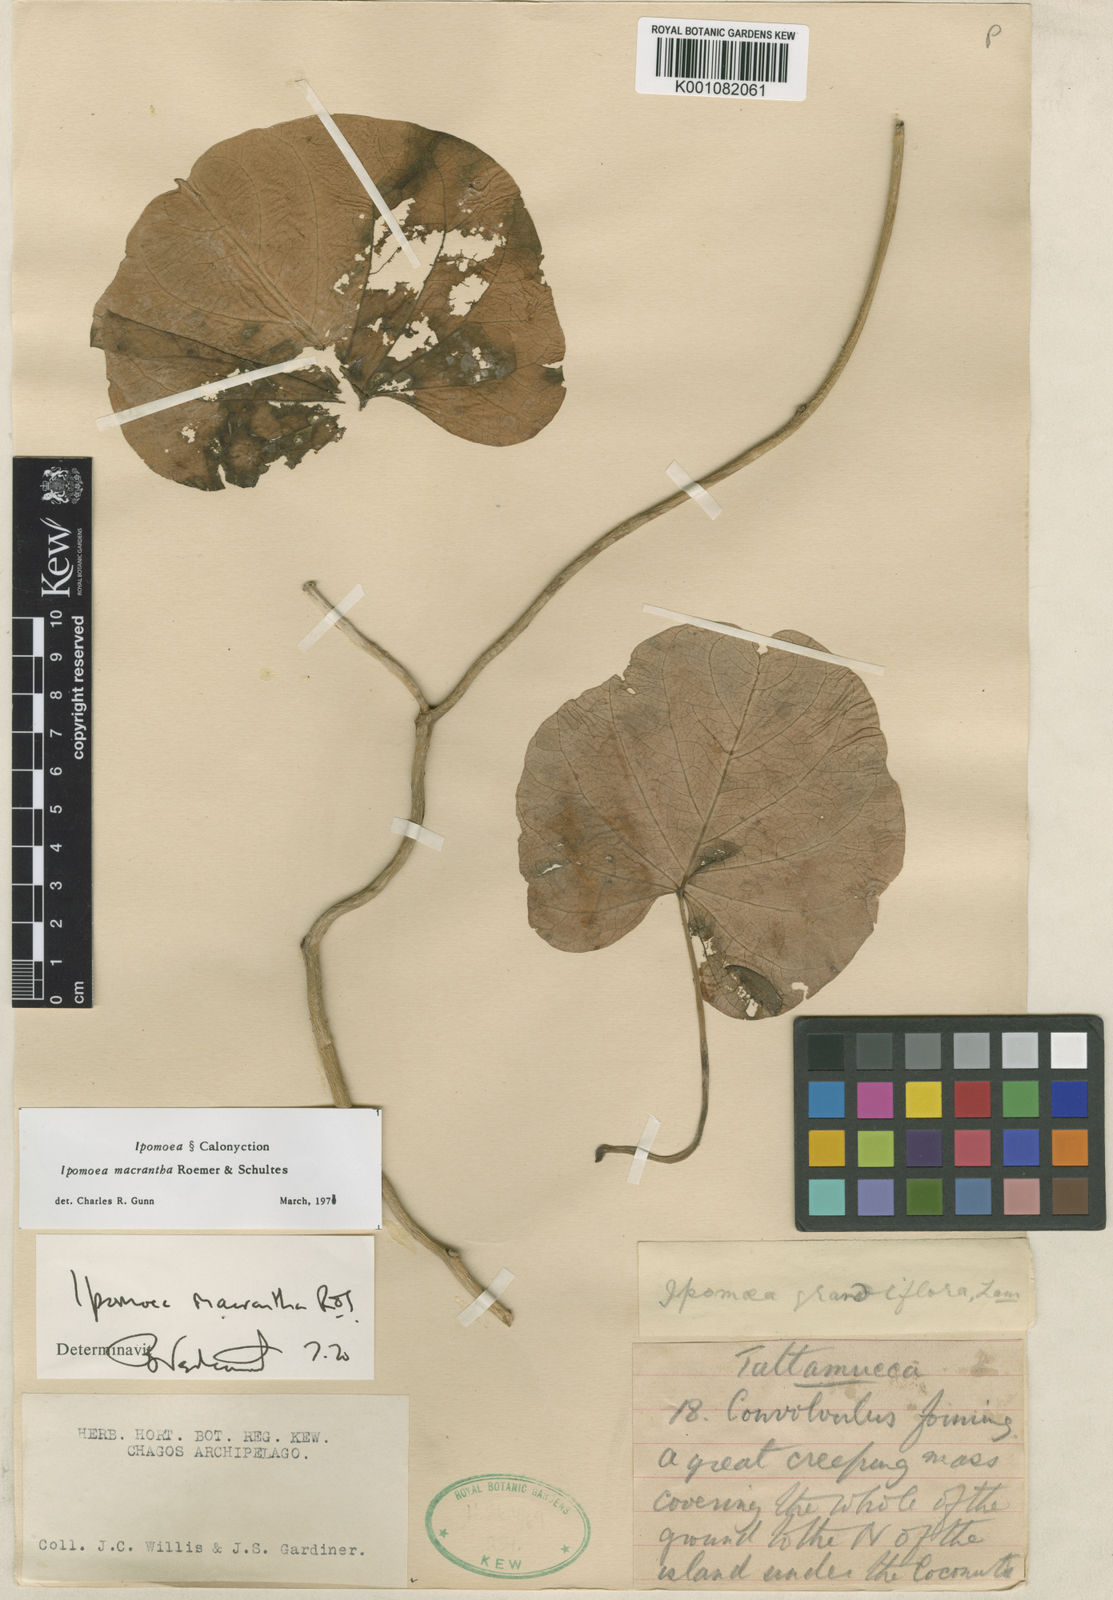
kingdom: Plantae
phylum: Tracheophyta
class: Magnoliopsida
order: Solanales
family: Convolvulaceae
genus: Ipomoea
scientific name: Ipomoea violacea
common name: Beach moonflower
